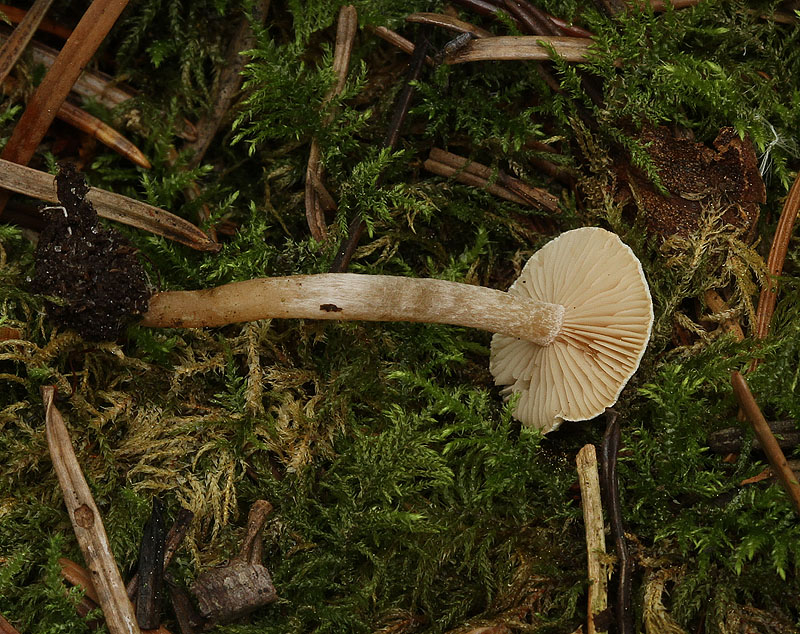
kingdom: Fungi
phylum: Basidiomycota
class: Agaricomycetes
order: Agaricales
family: Tricholomataceae
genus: Ripartites
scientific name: Ripartites tricholoma
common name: almindelig skæghat
